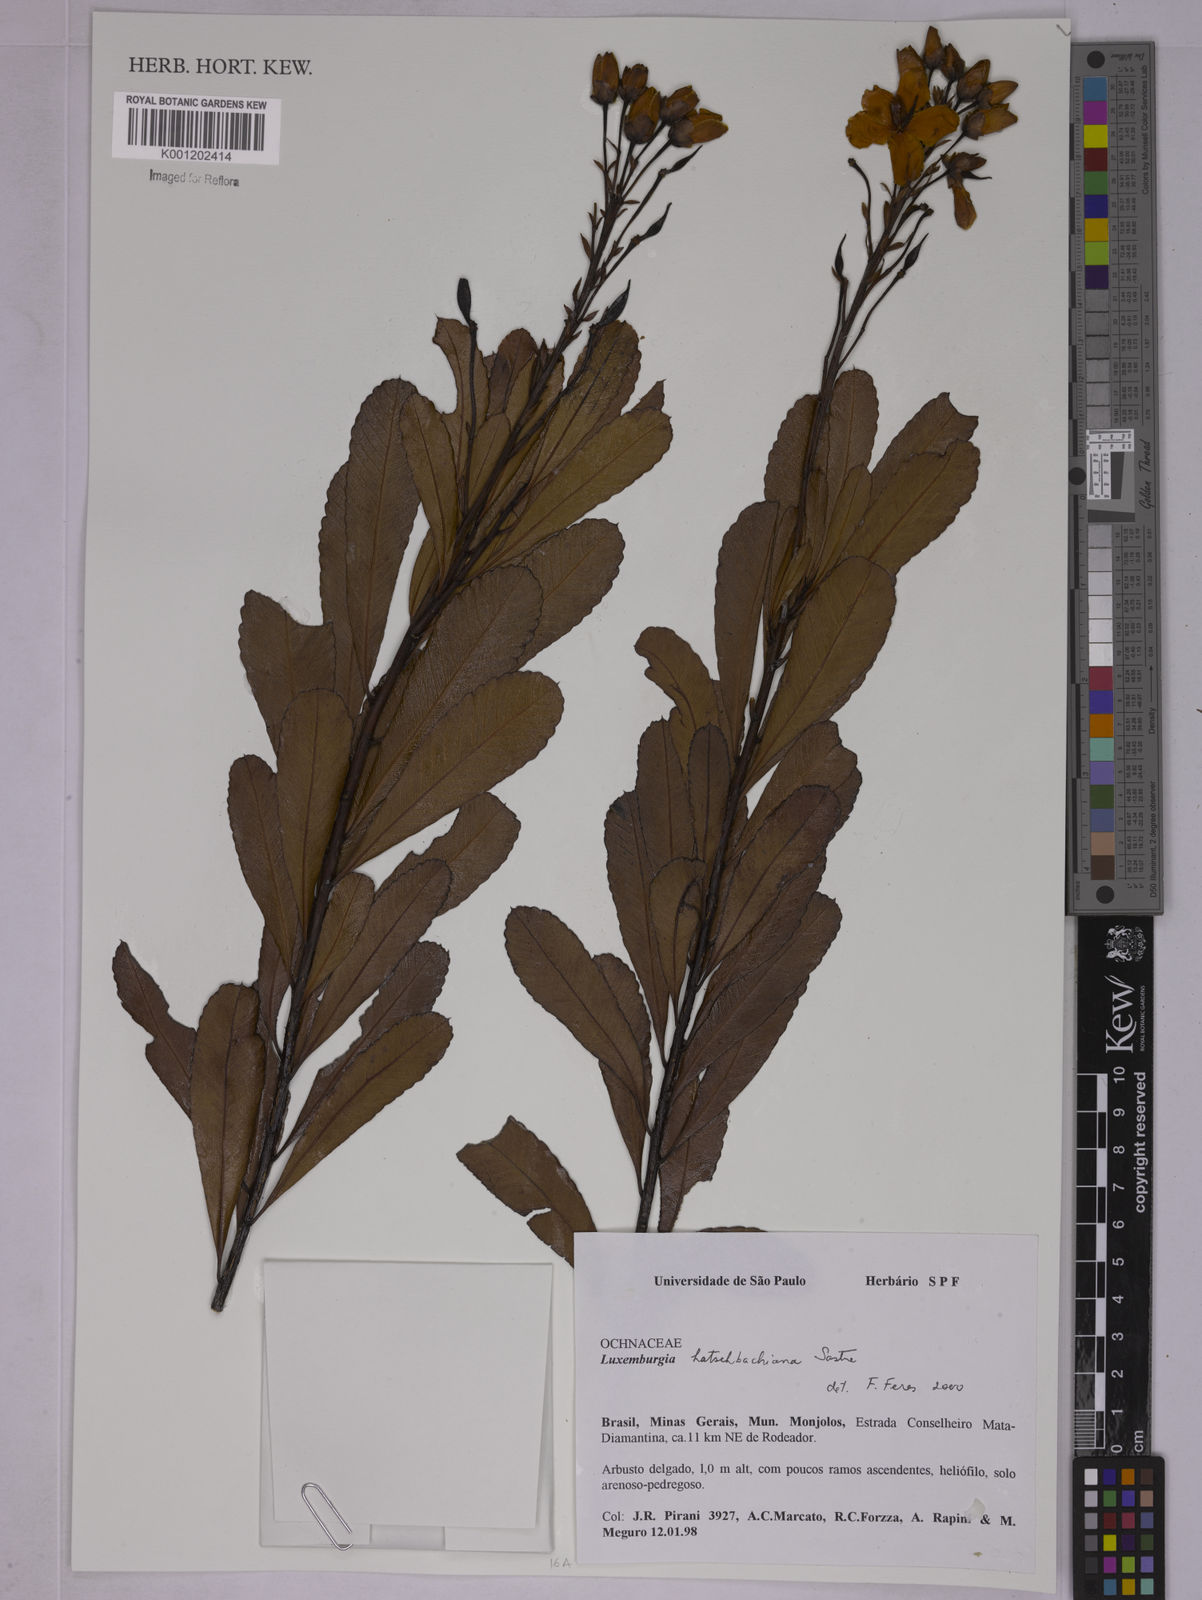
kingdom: Plantae
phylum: Tracheophyta
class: Magnoliopsida
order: Malpighiales
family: Ochnaceae
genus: Luxemburgia
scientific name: Luxemburgia hatschbachiana
